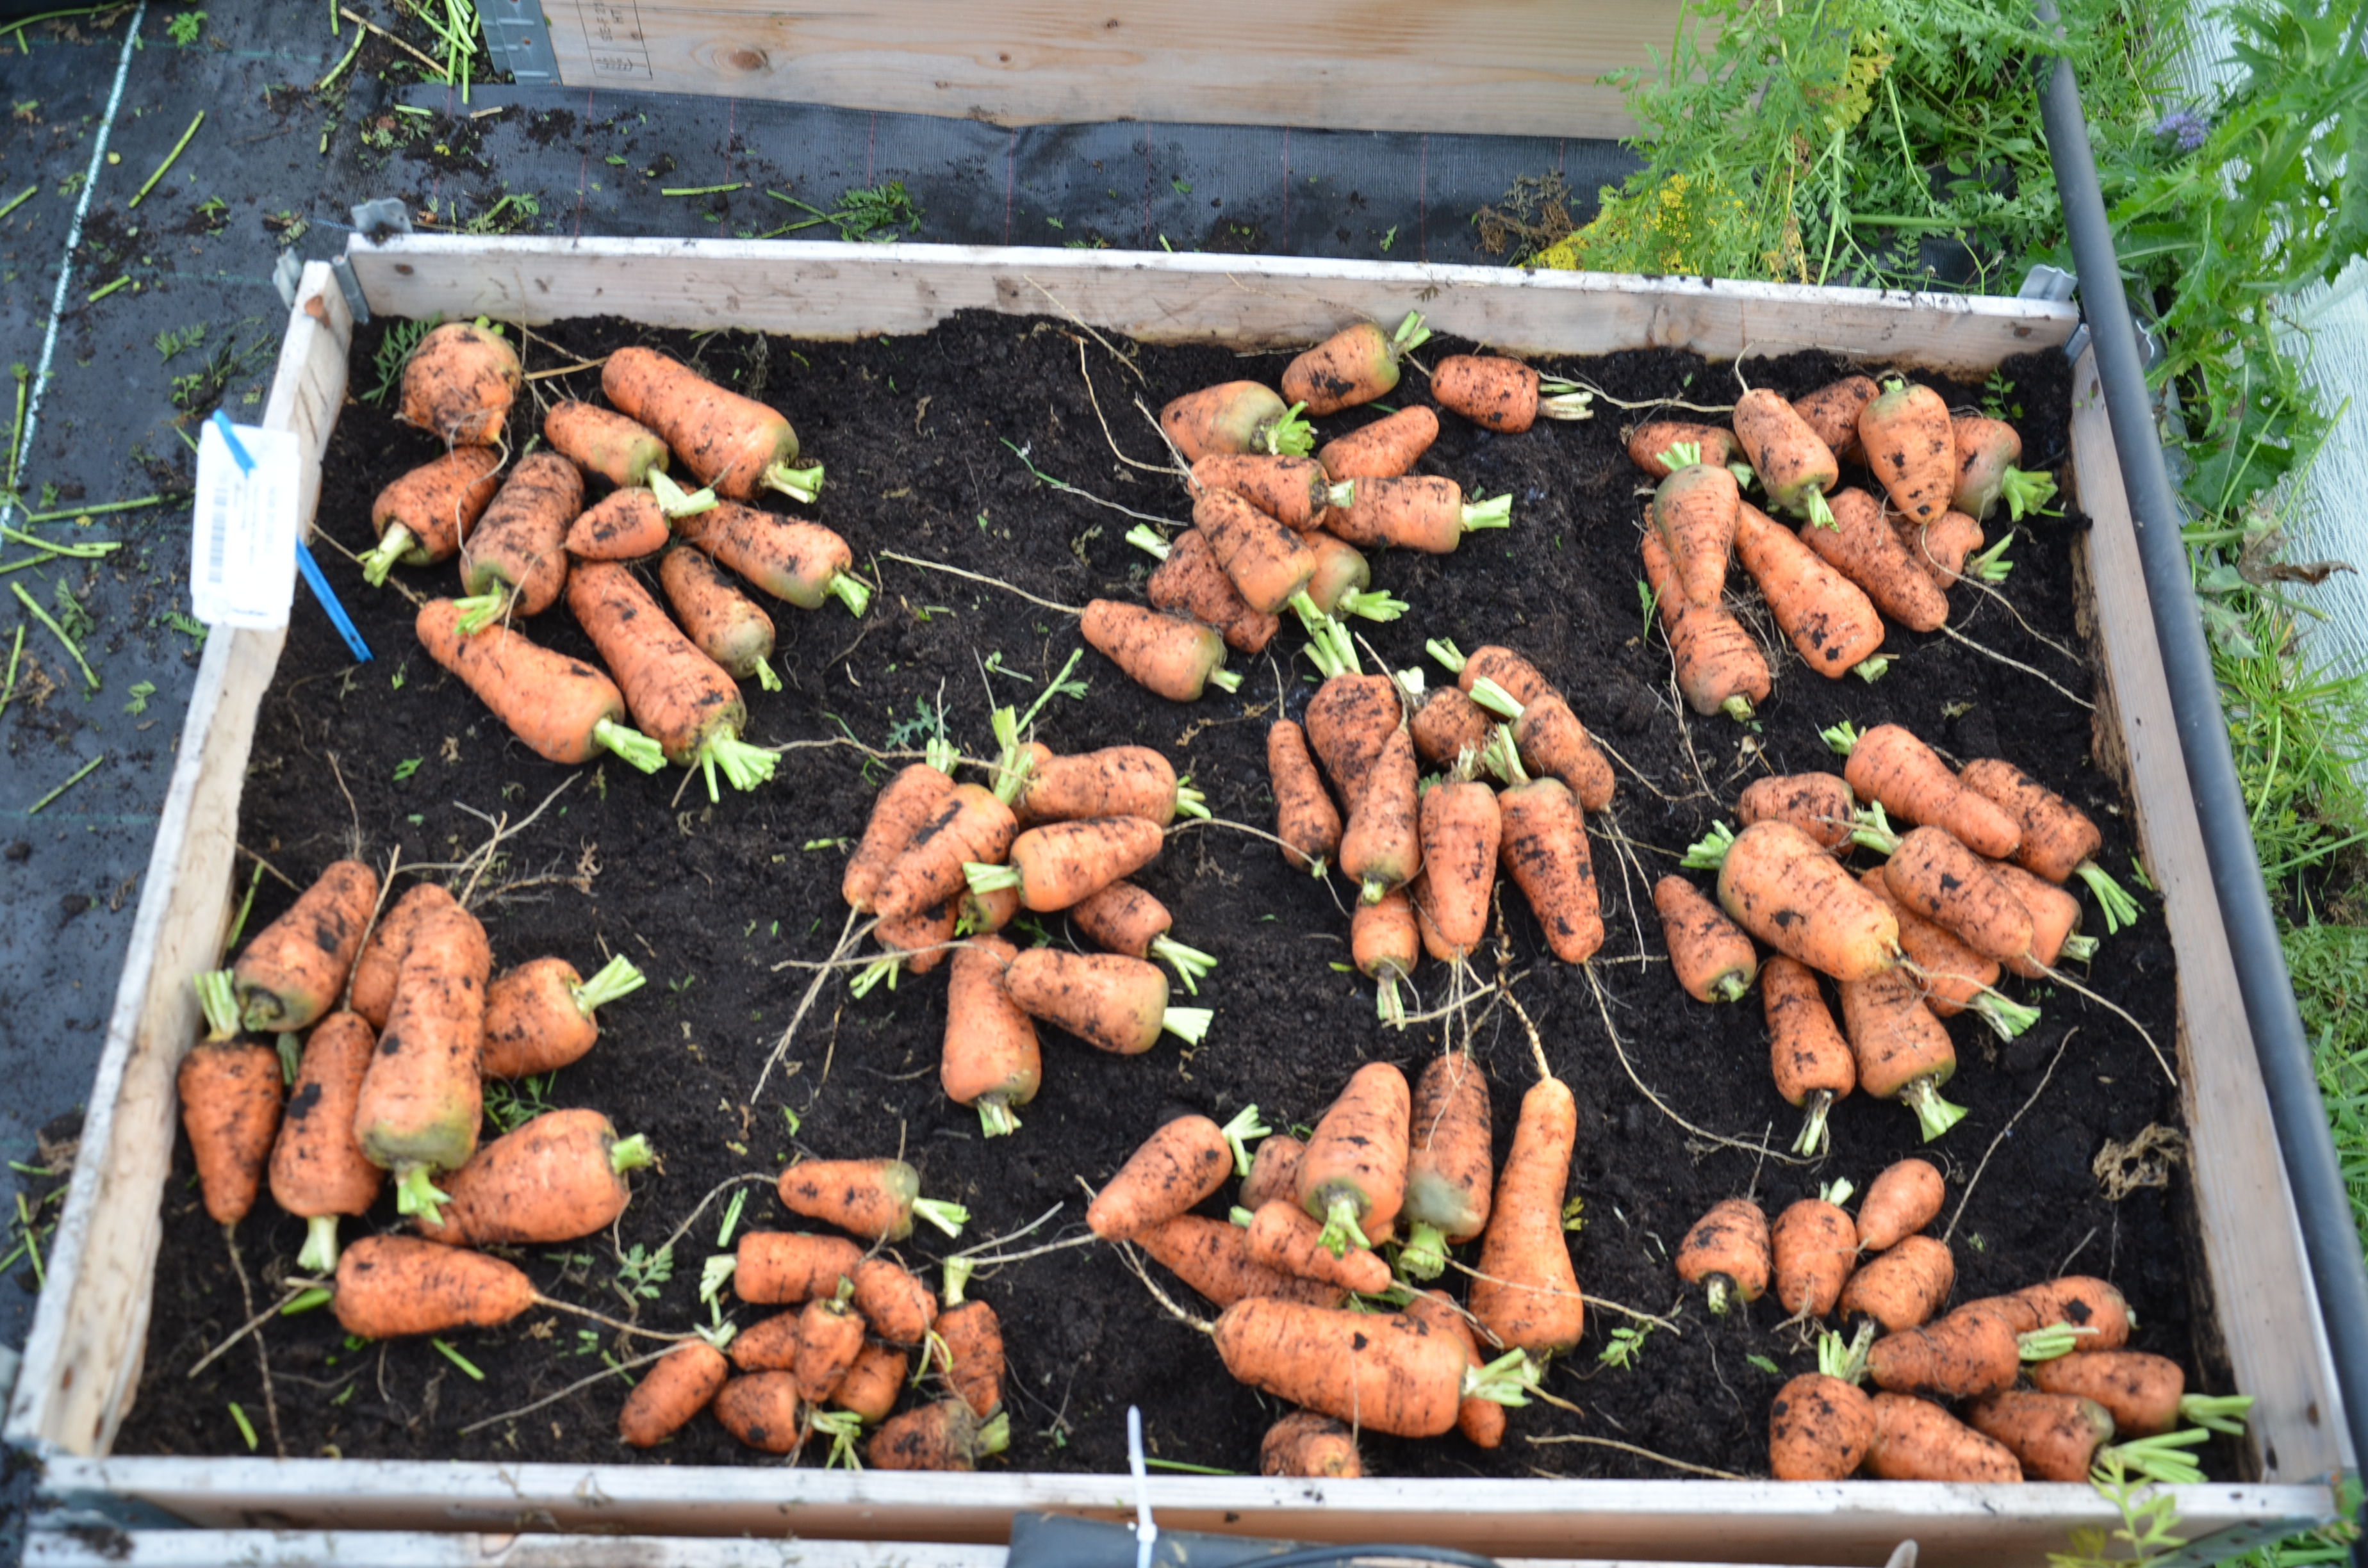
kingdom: Plantae
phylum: Tracheophyta
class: Magnoliopsida
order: Apiales
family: Apiaceae
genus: Daucus
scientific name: Daucus carota
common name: Wild carrot
